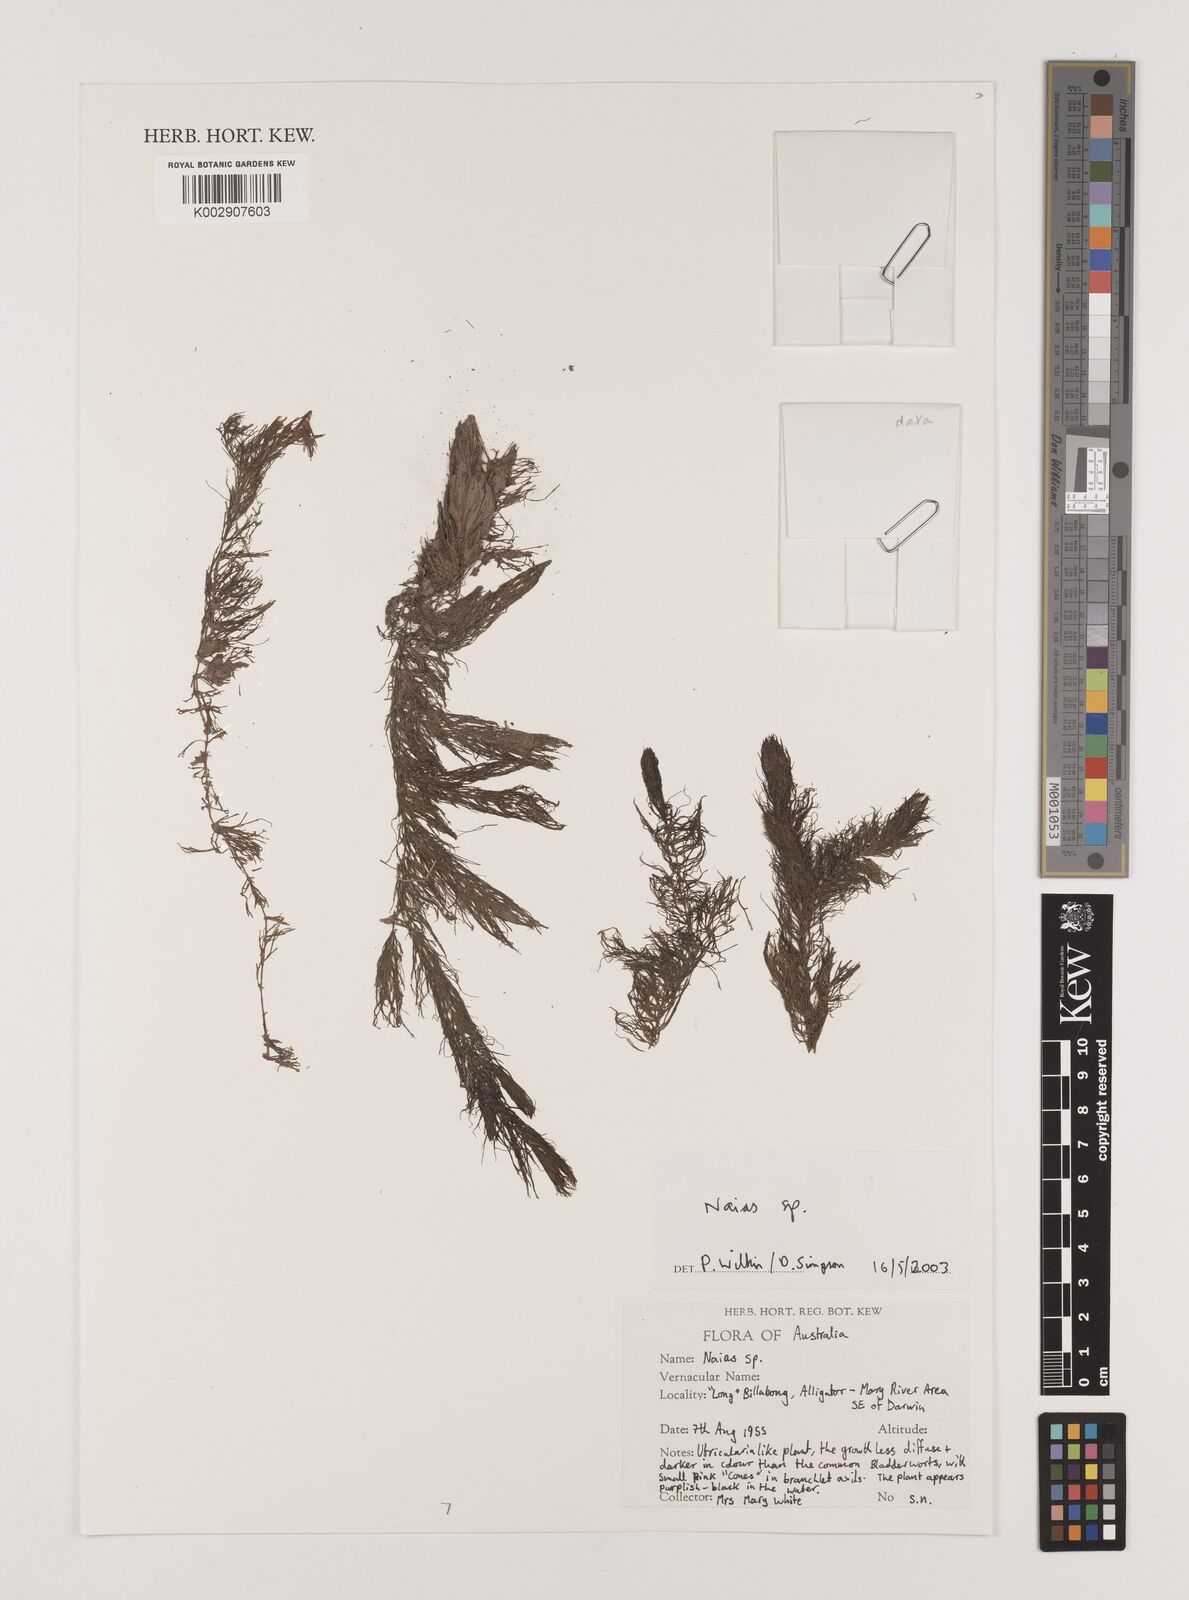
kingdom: Plantae
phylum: Tracheophyta
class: Liliopsida
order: Alismatales
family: Hydrocharitaceae
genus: Najas
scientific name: Najas
